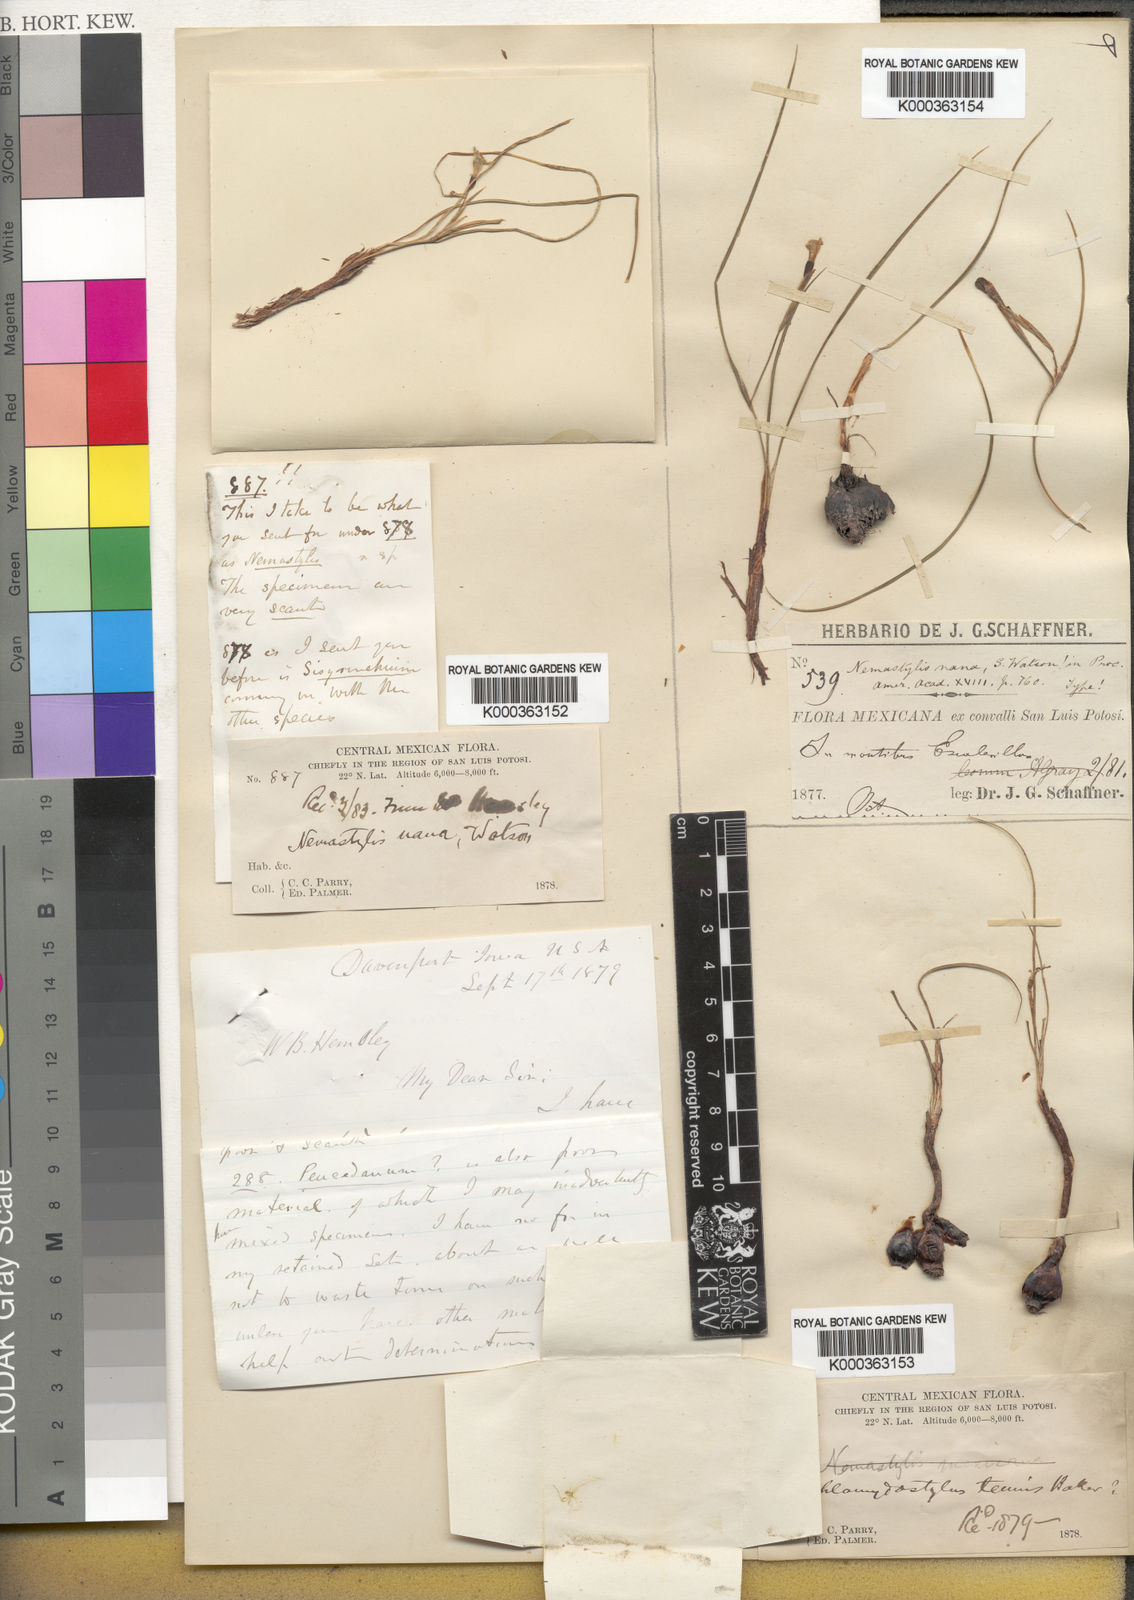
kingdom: Plantae
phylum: Tracheophyta
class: Liliopsida
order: Asparagales
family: Iridaceae
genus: Nemastylis
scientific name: Nemastylis tenuis
